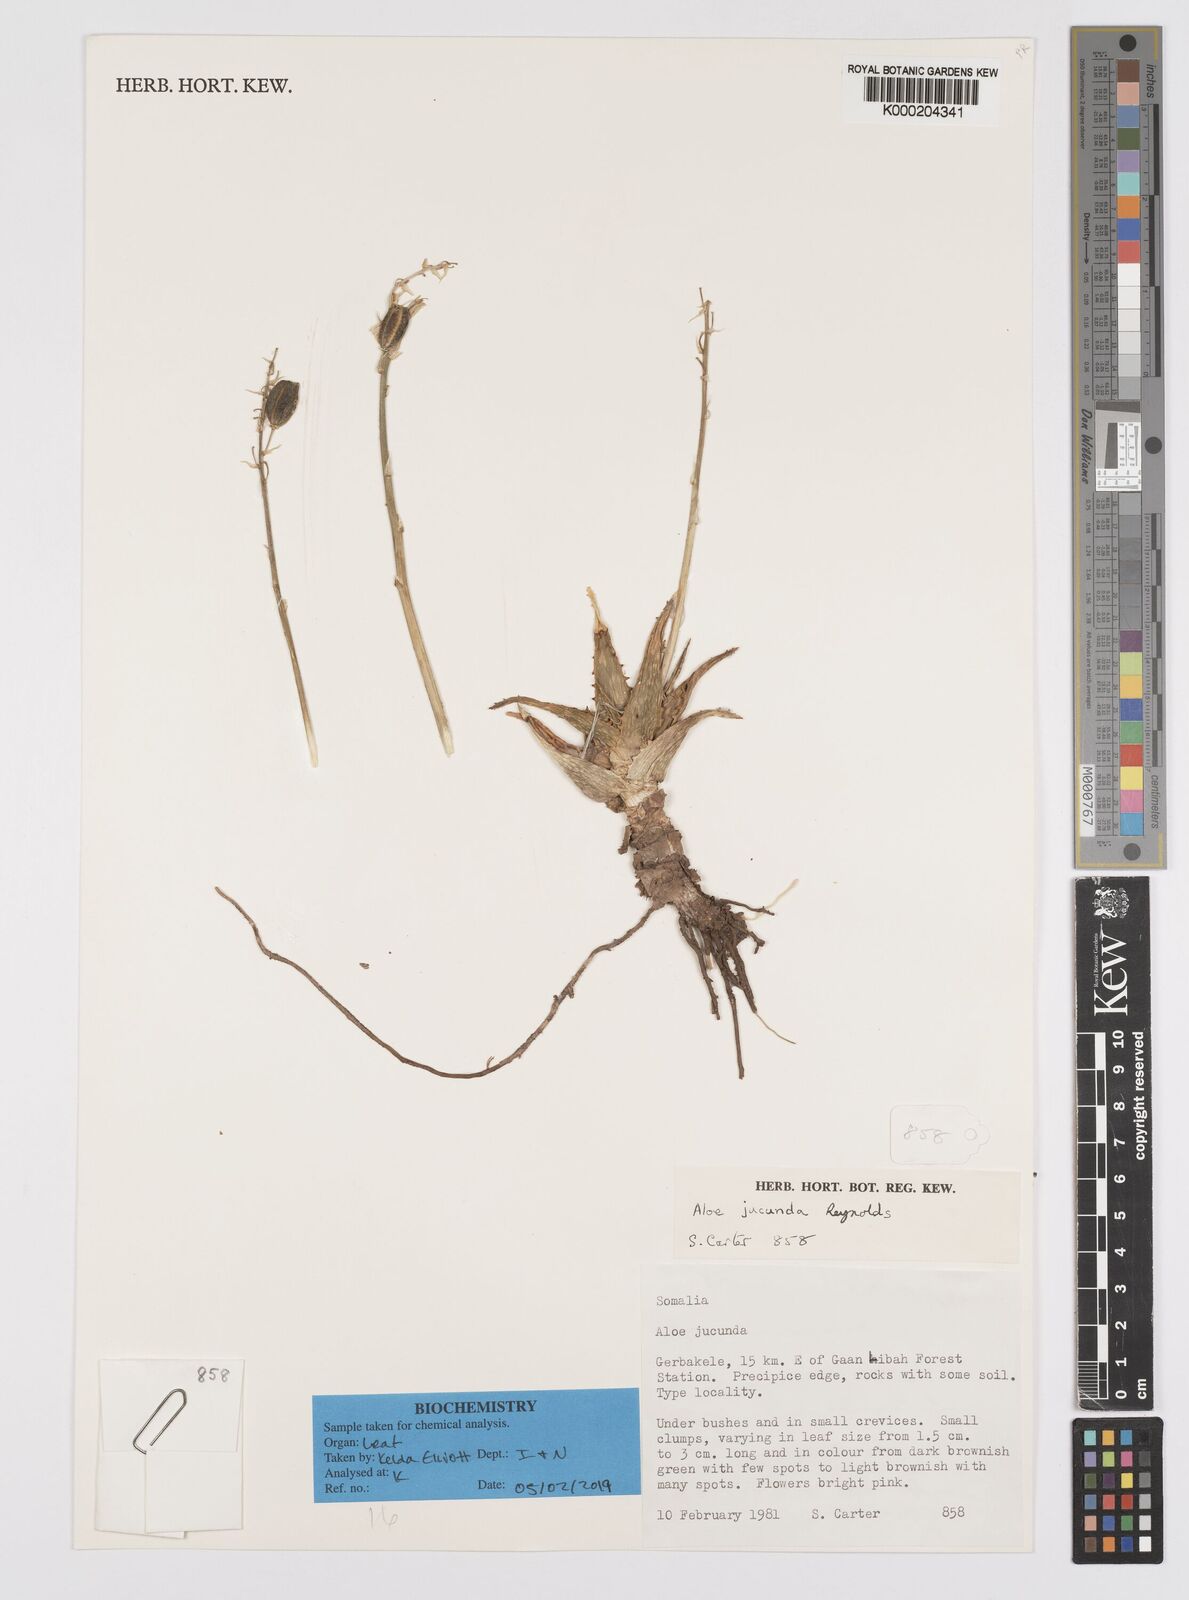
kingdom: Plantae
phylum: Tracheophyta
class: Liliopsida
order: Asparagales
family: Asphodelaceae
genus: Aloe
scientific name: Aloe jucunda
